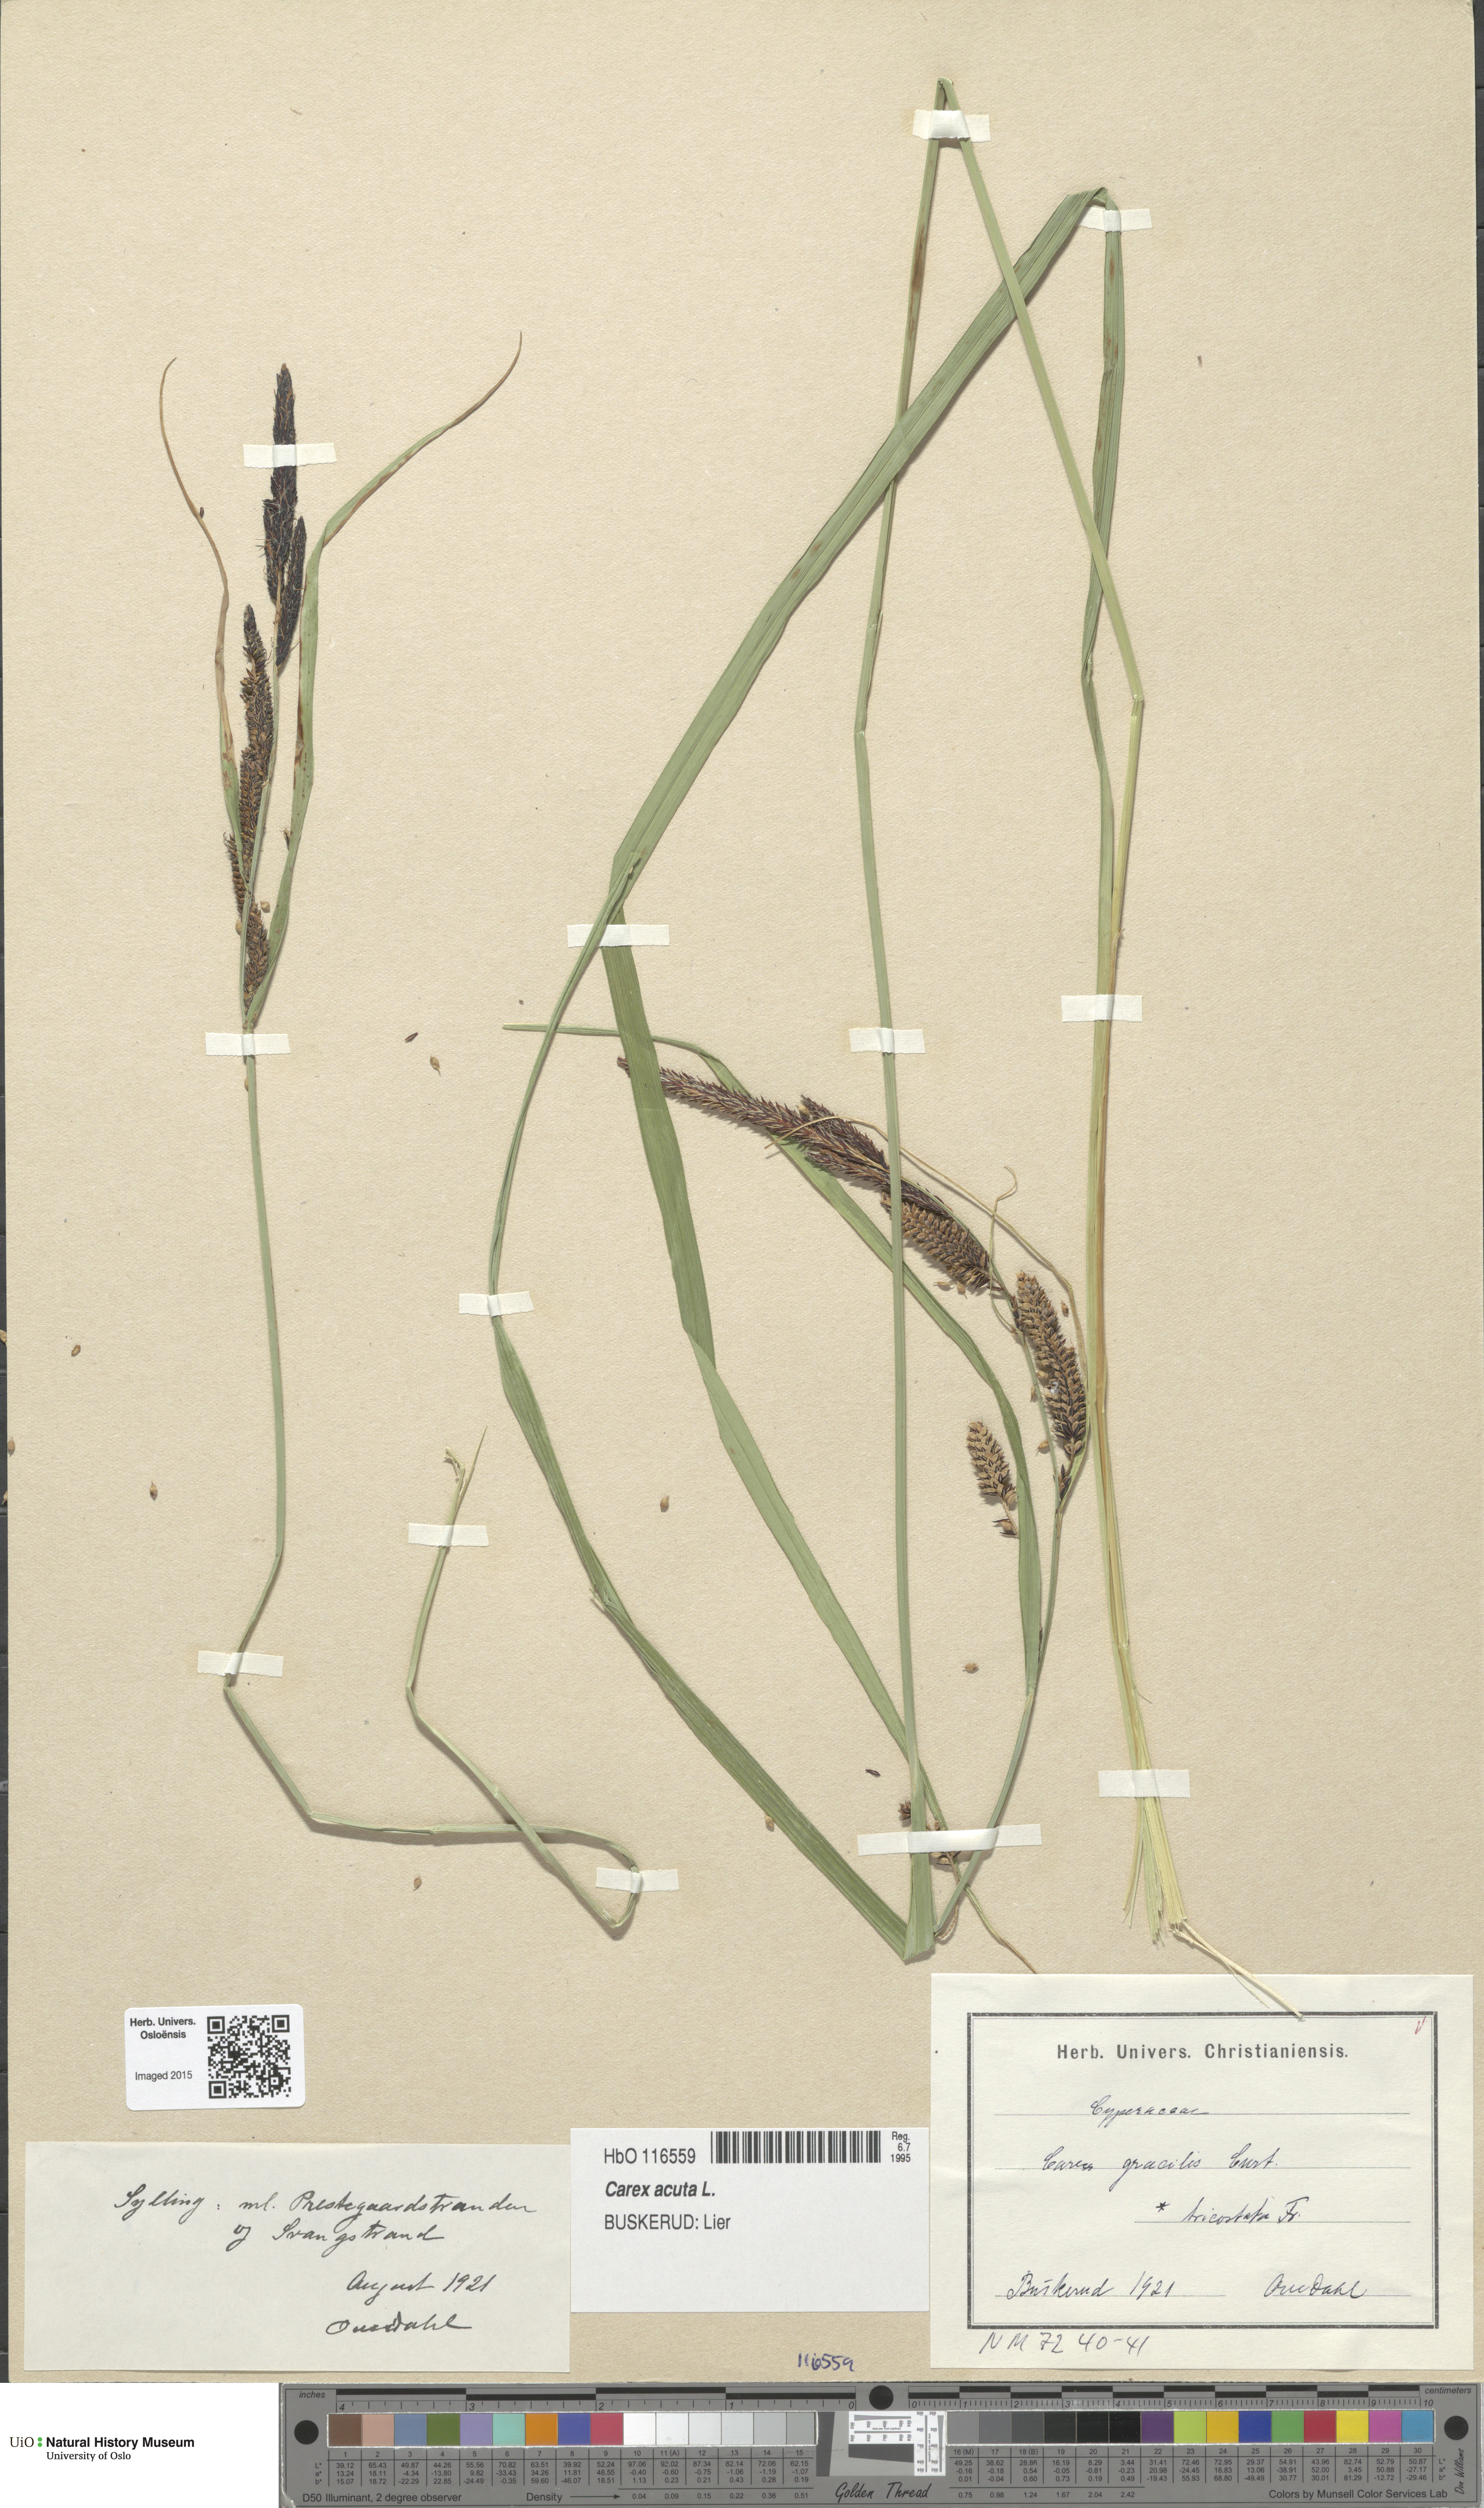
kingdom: Plantae
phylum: Tracheophyta
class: Liliopsida
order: Poales
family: Cyperaceae
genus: Carex
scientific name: Carex acuta
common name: Slender tufted-sedge
